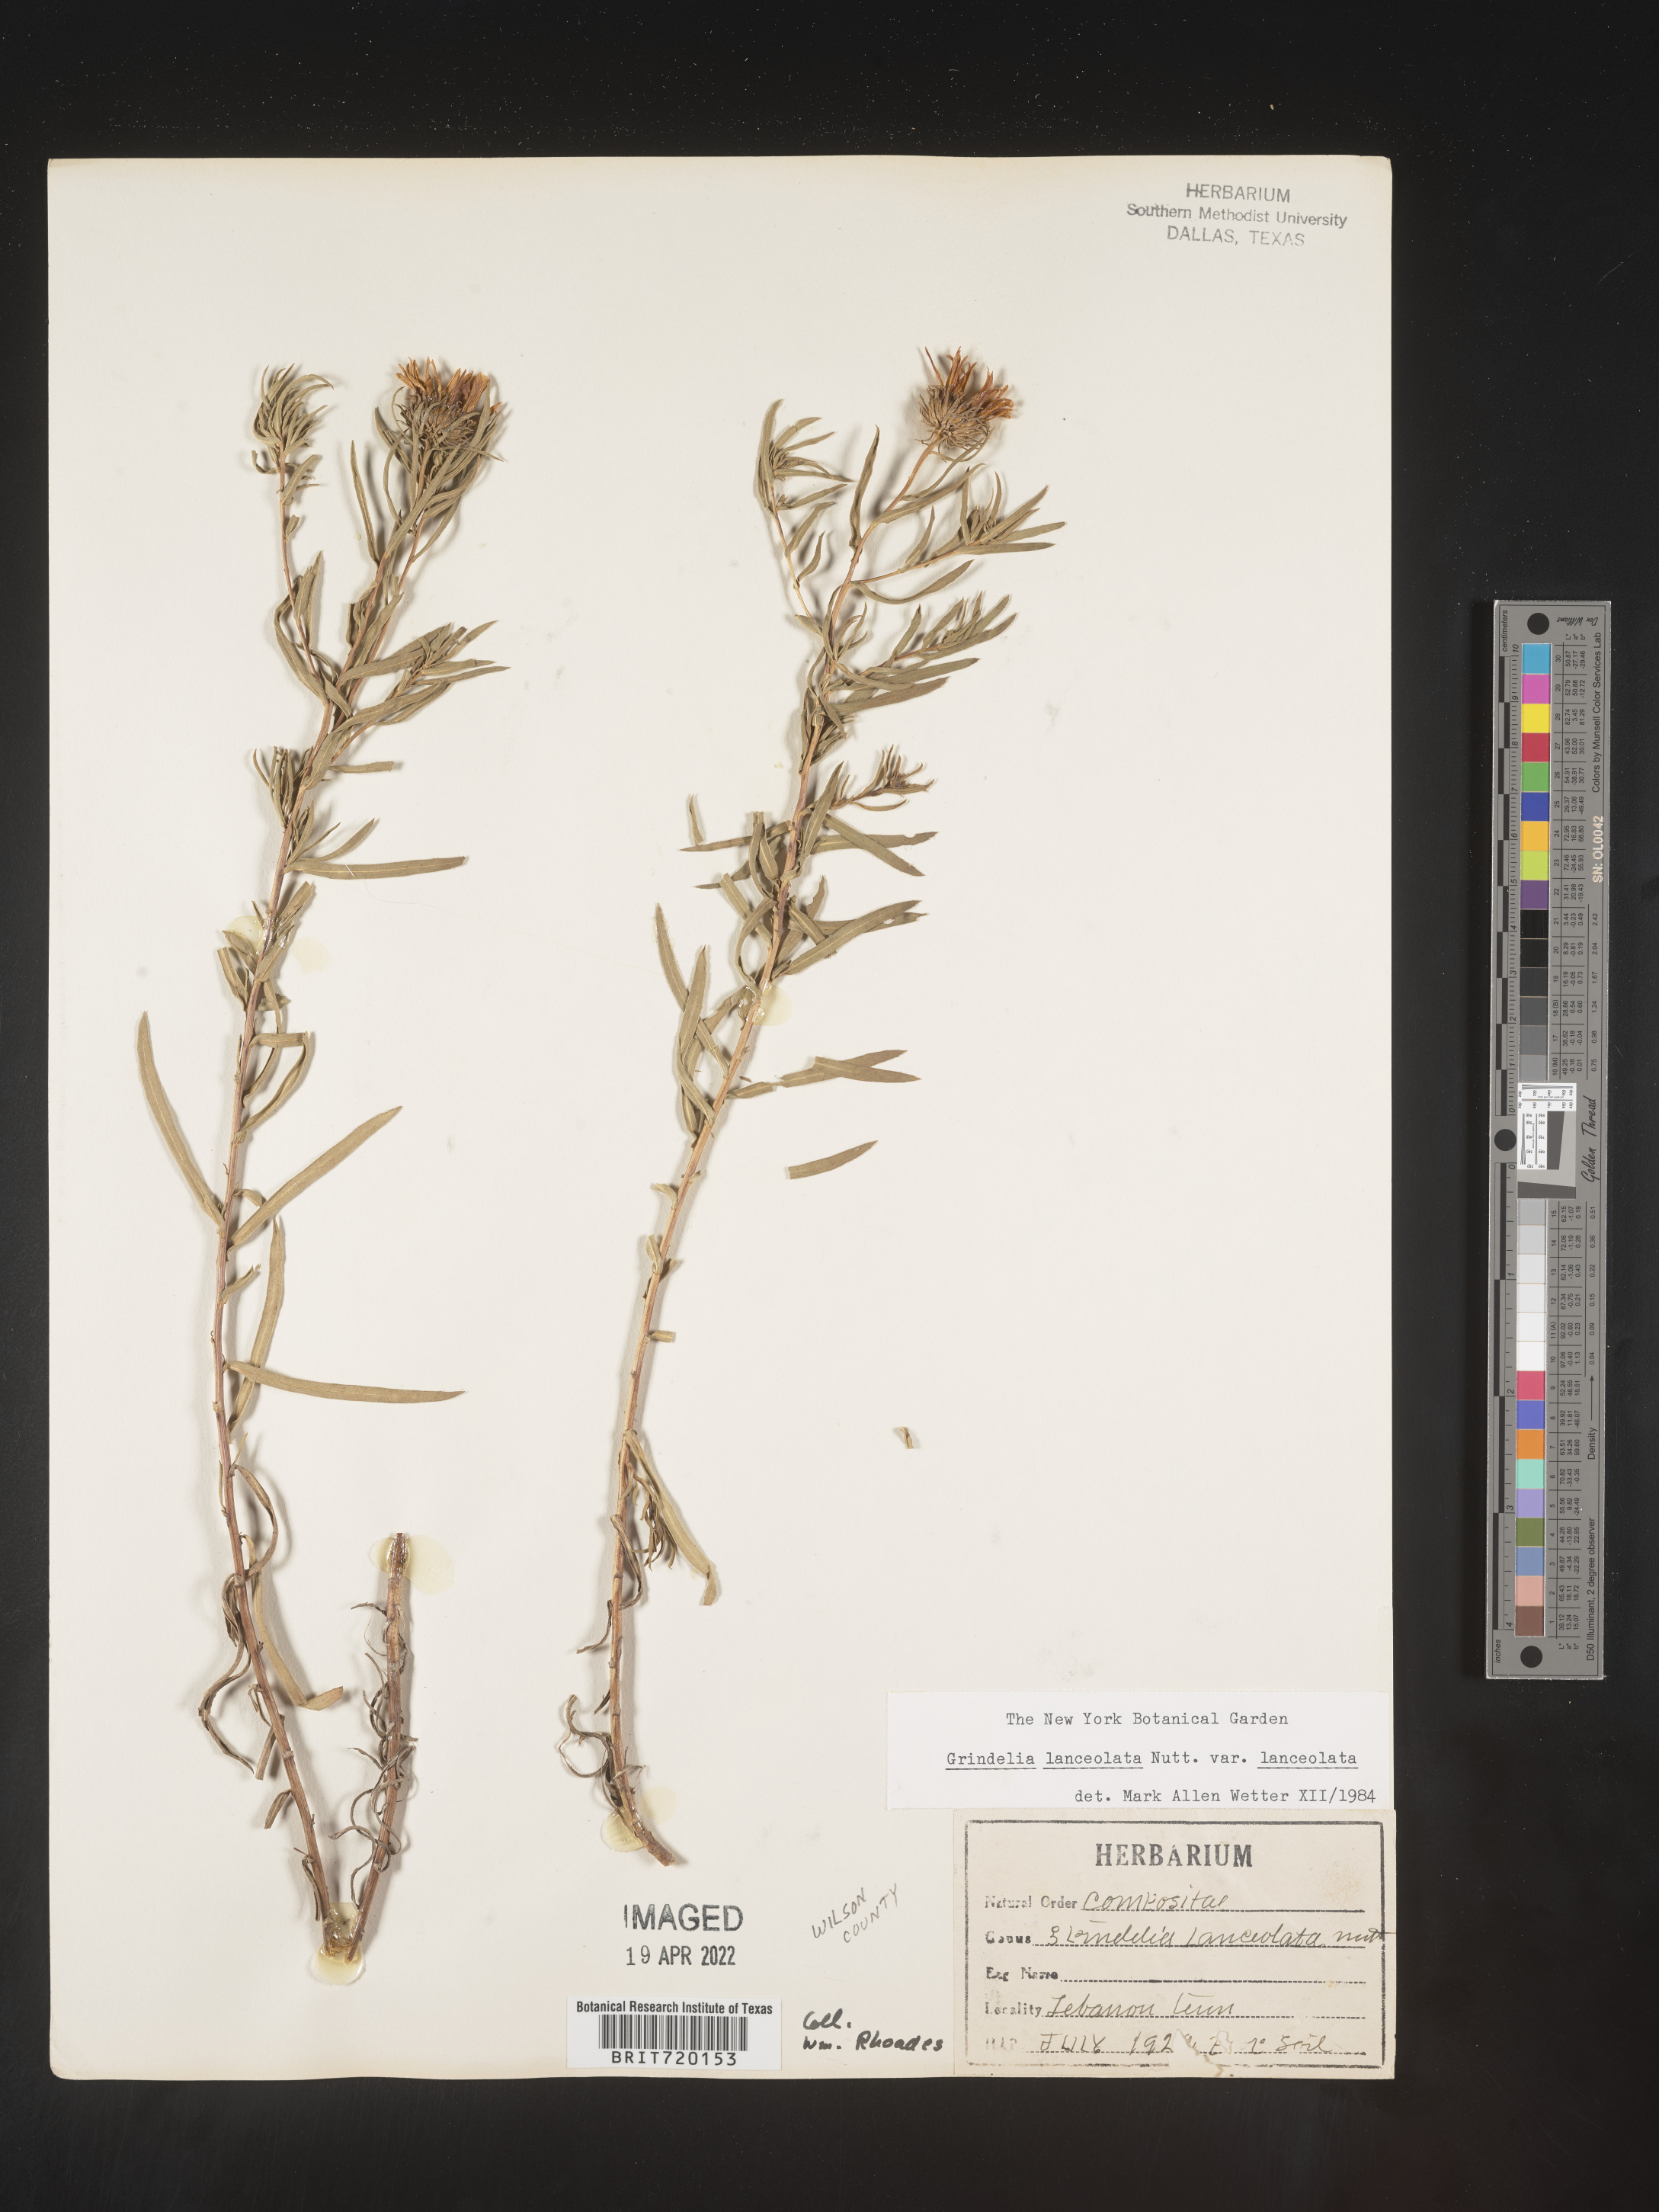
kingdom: Plantae
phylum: Tracheophyta
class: Magnoliopsida
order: Asterales
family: Asteraceae
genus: Grindelia
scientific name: Grindelia lanceolata
